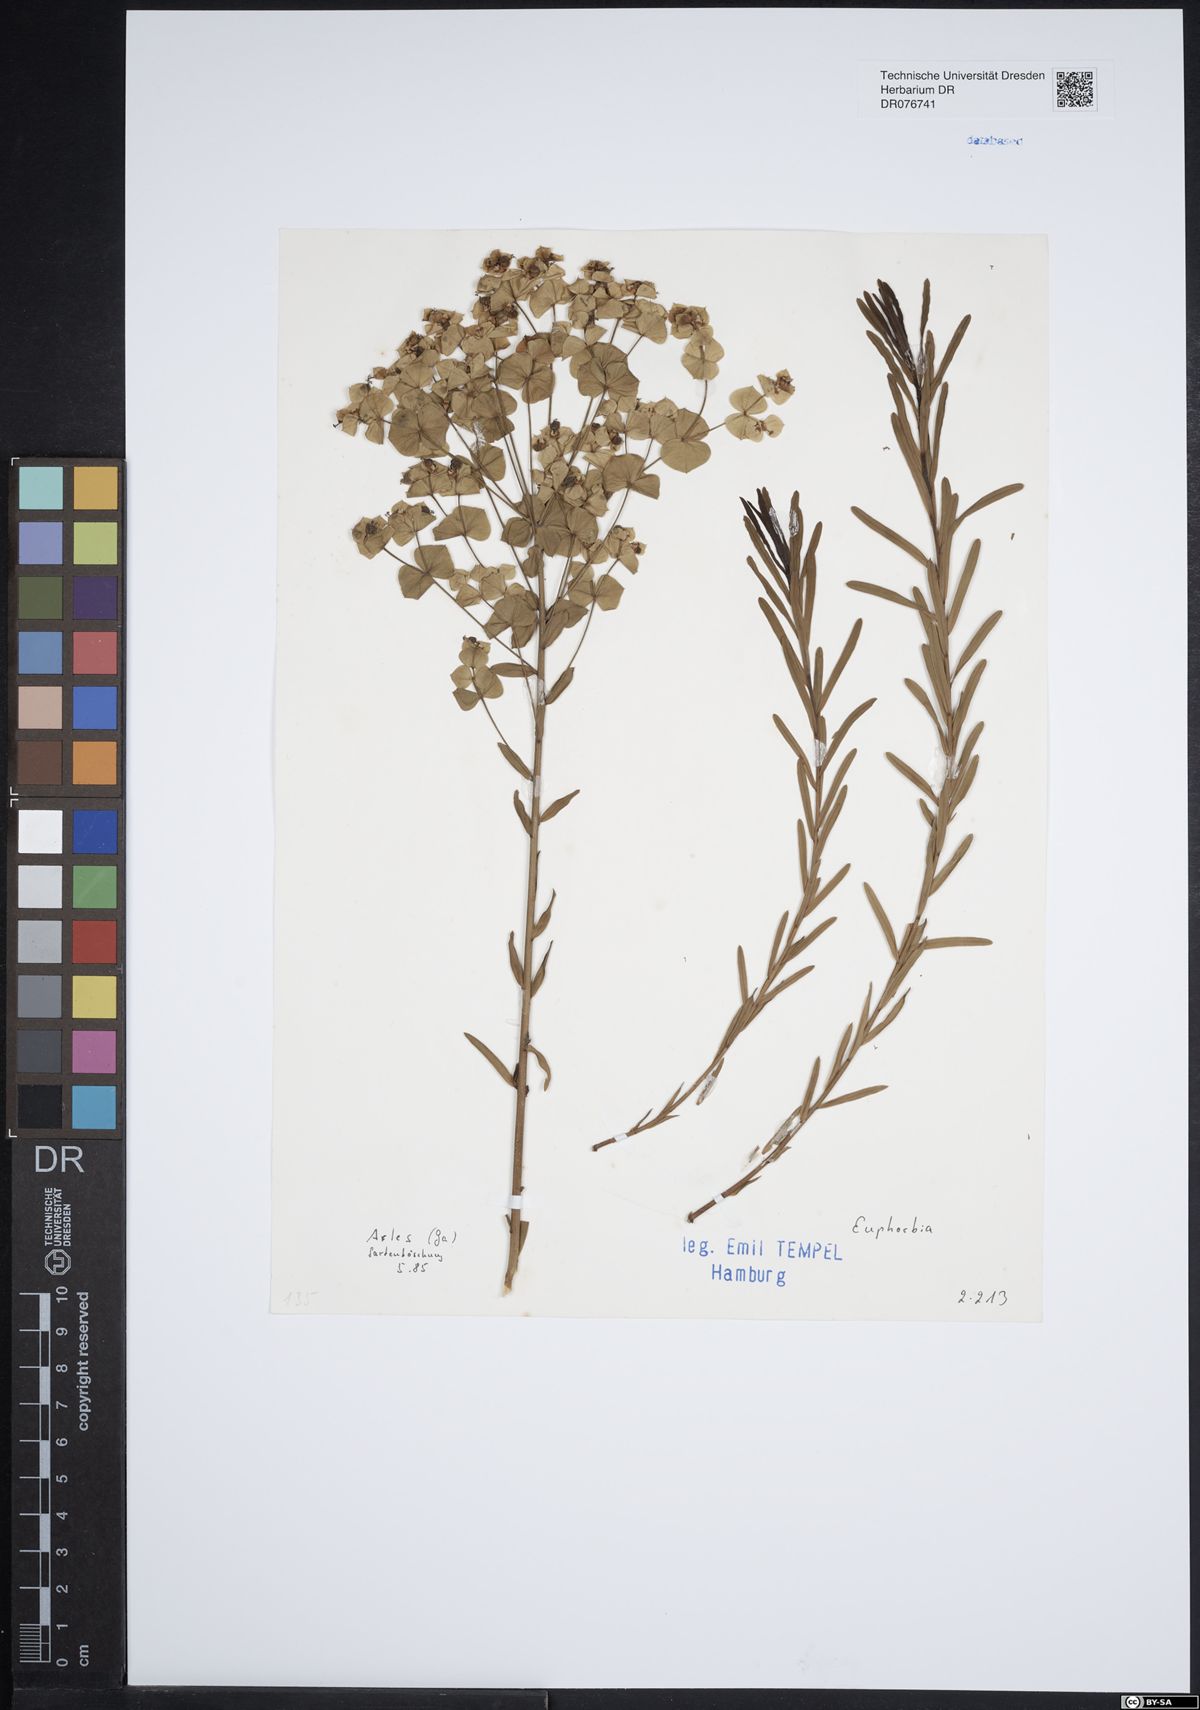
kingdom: Plantae
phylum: Tracheophyta
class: Magnoliopsida
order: Malpighiales
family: Euphorbiaceae
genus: Euphorbia
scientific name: Euphorbia
